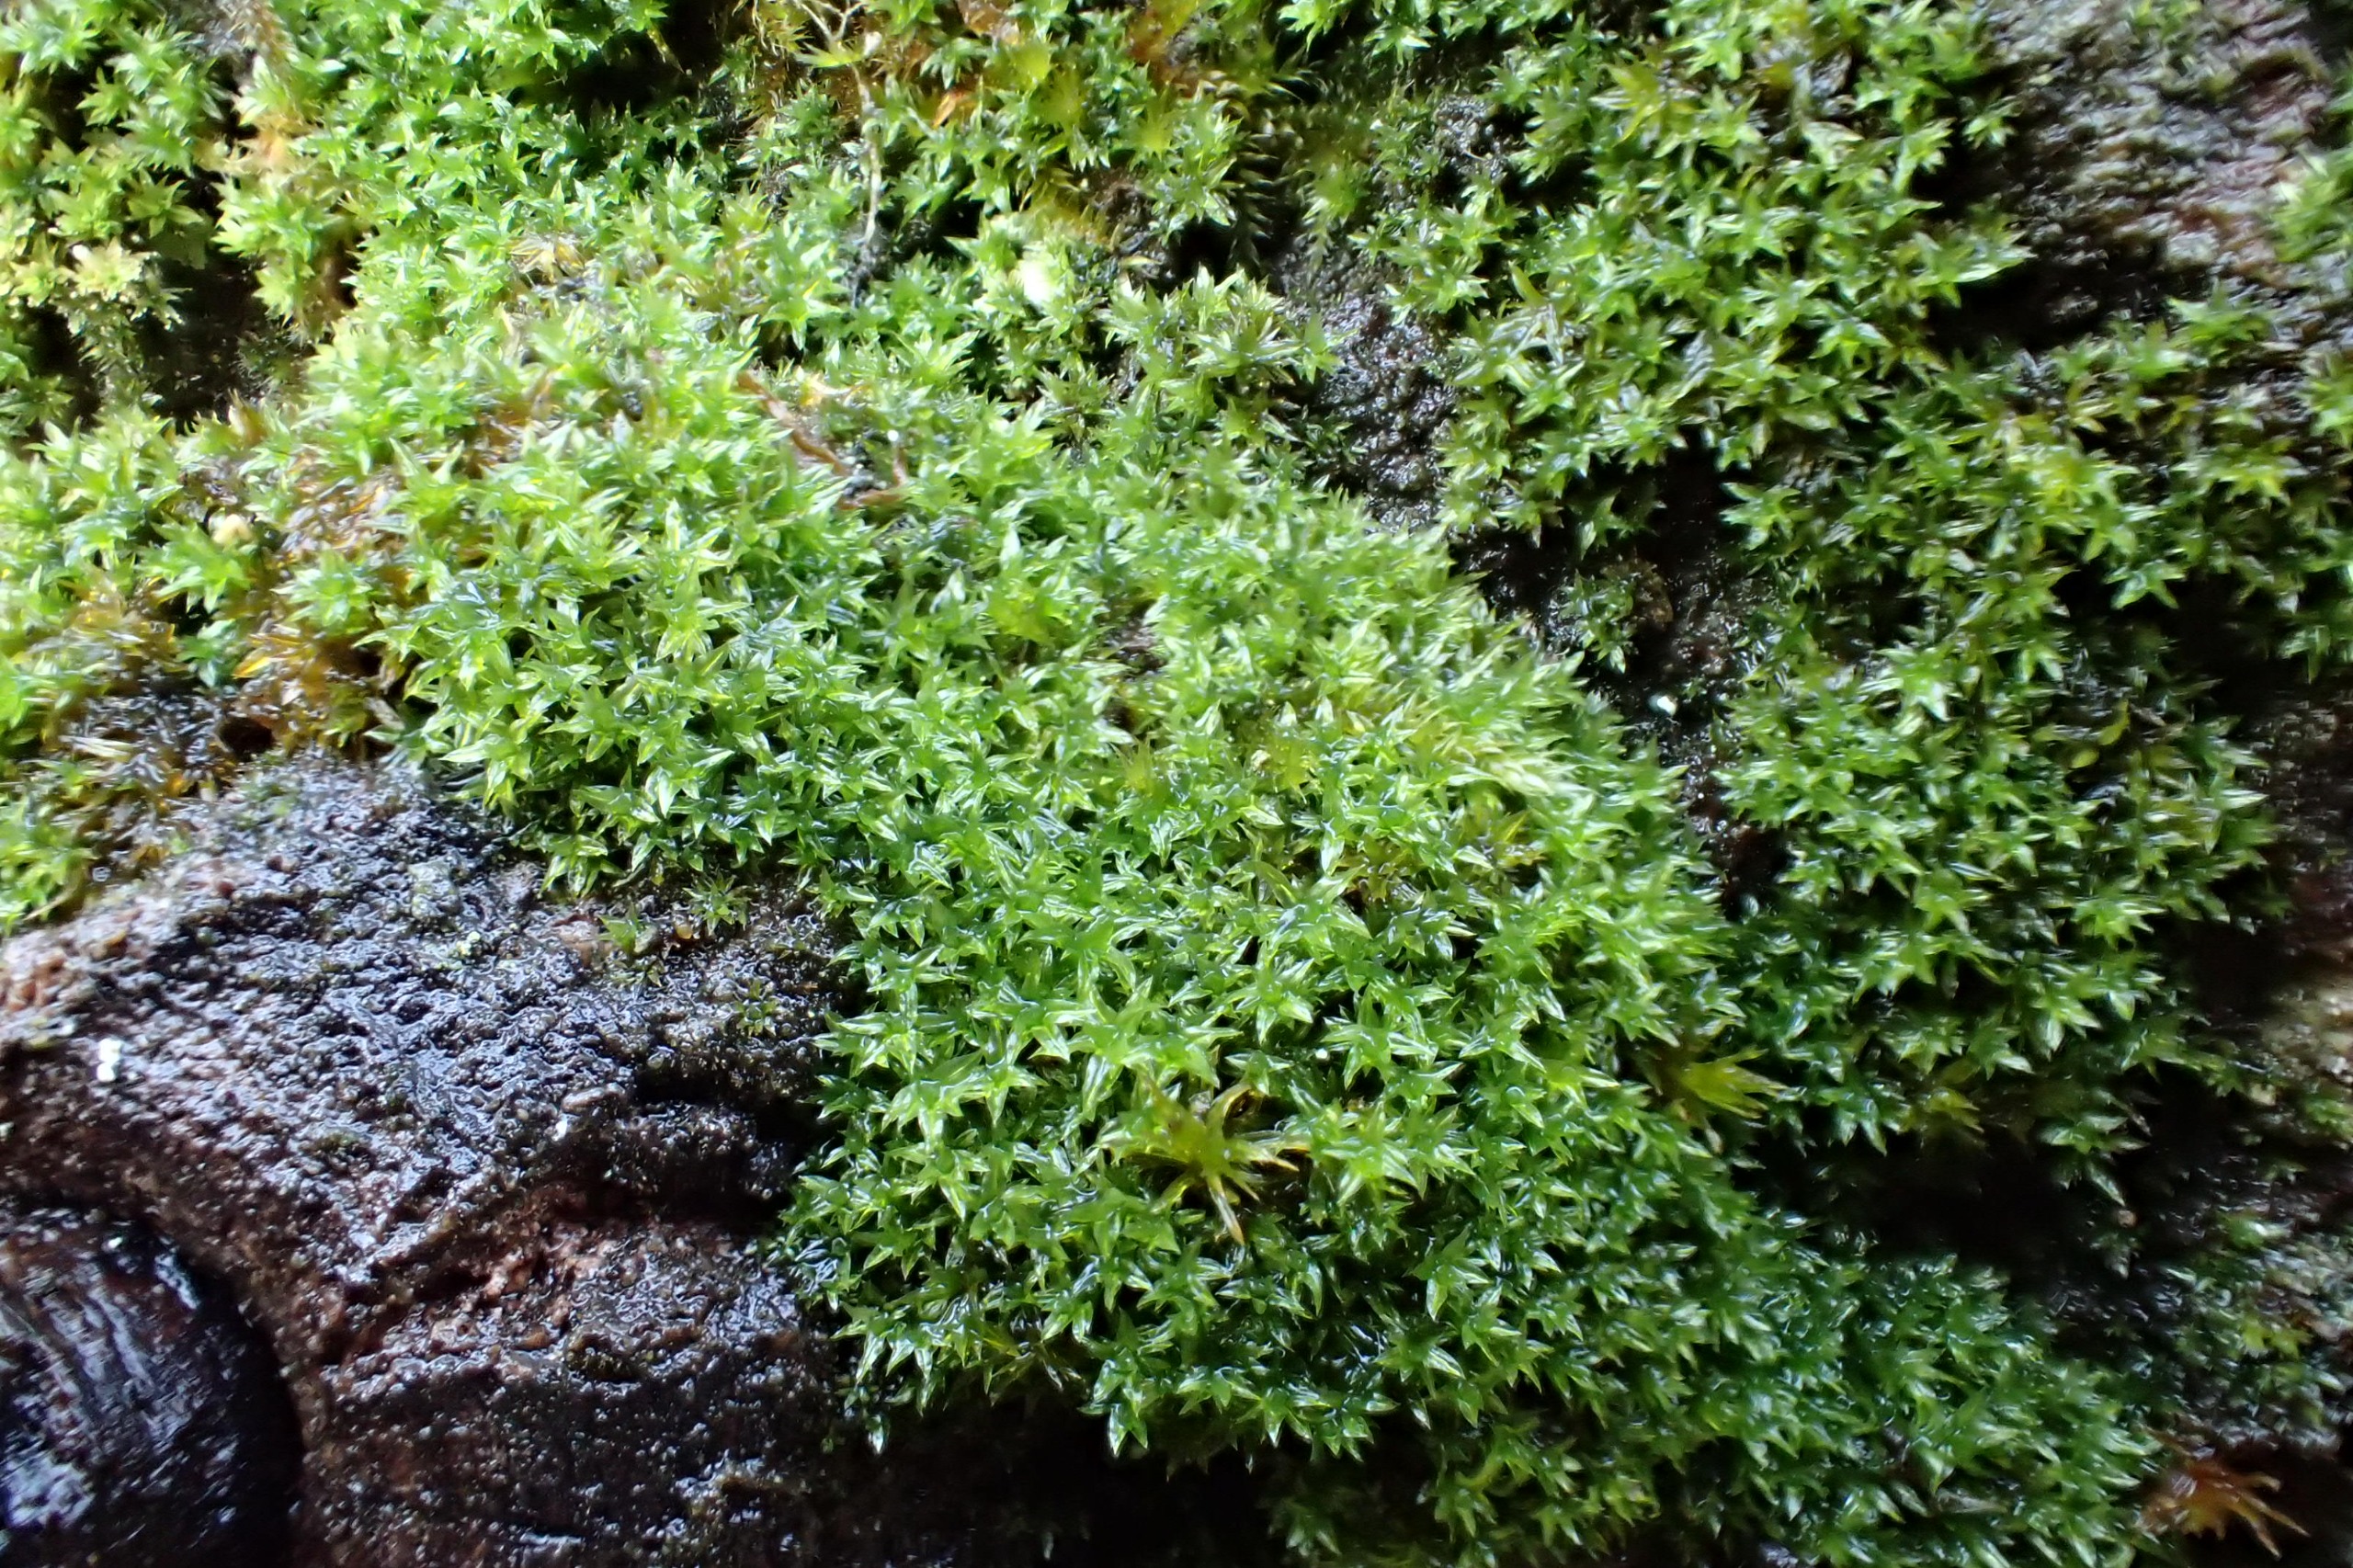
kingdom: Plantae
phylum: Bryophyta
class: Bryopsida
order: Orthotrichales
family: Orthotrichaceae
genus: Zygodon
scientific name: Zygodon conoideus
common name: Tand-køllemos
